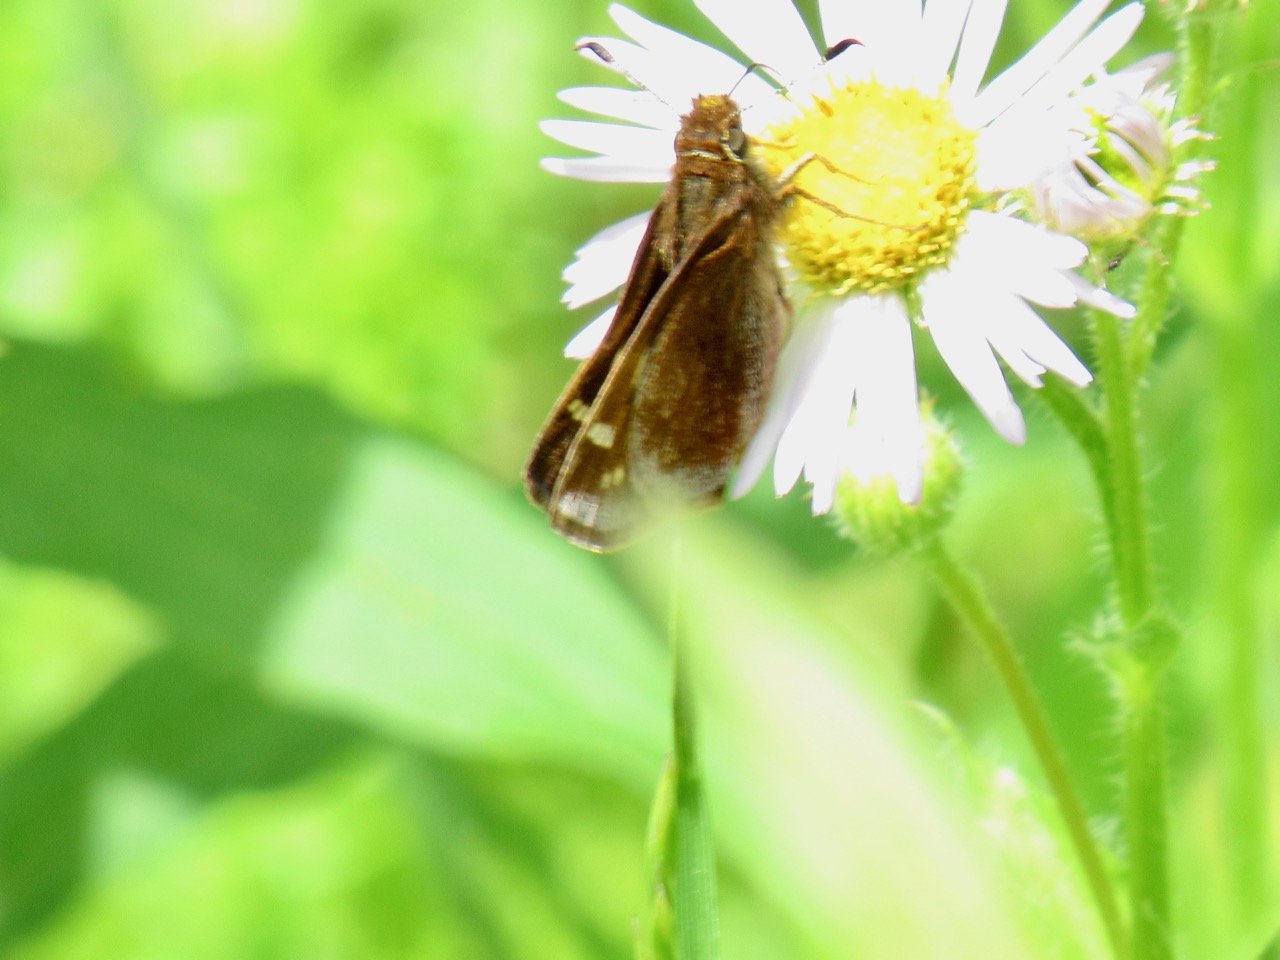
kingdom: Animalia
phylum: Arthropoda
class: Insecta
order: Lepidoptera
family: Hesperiidae
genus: Lon
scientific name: Lon hobomok
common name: Hobomok Skipper
